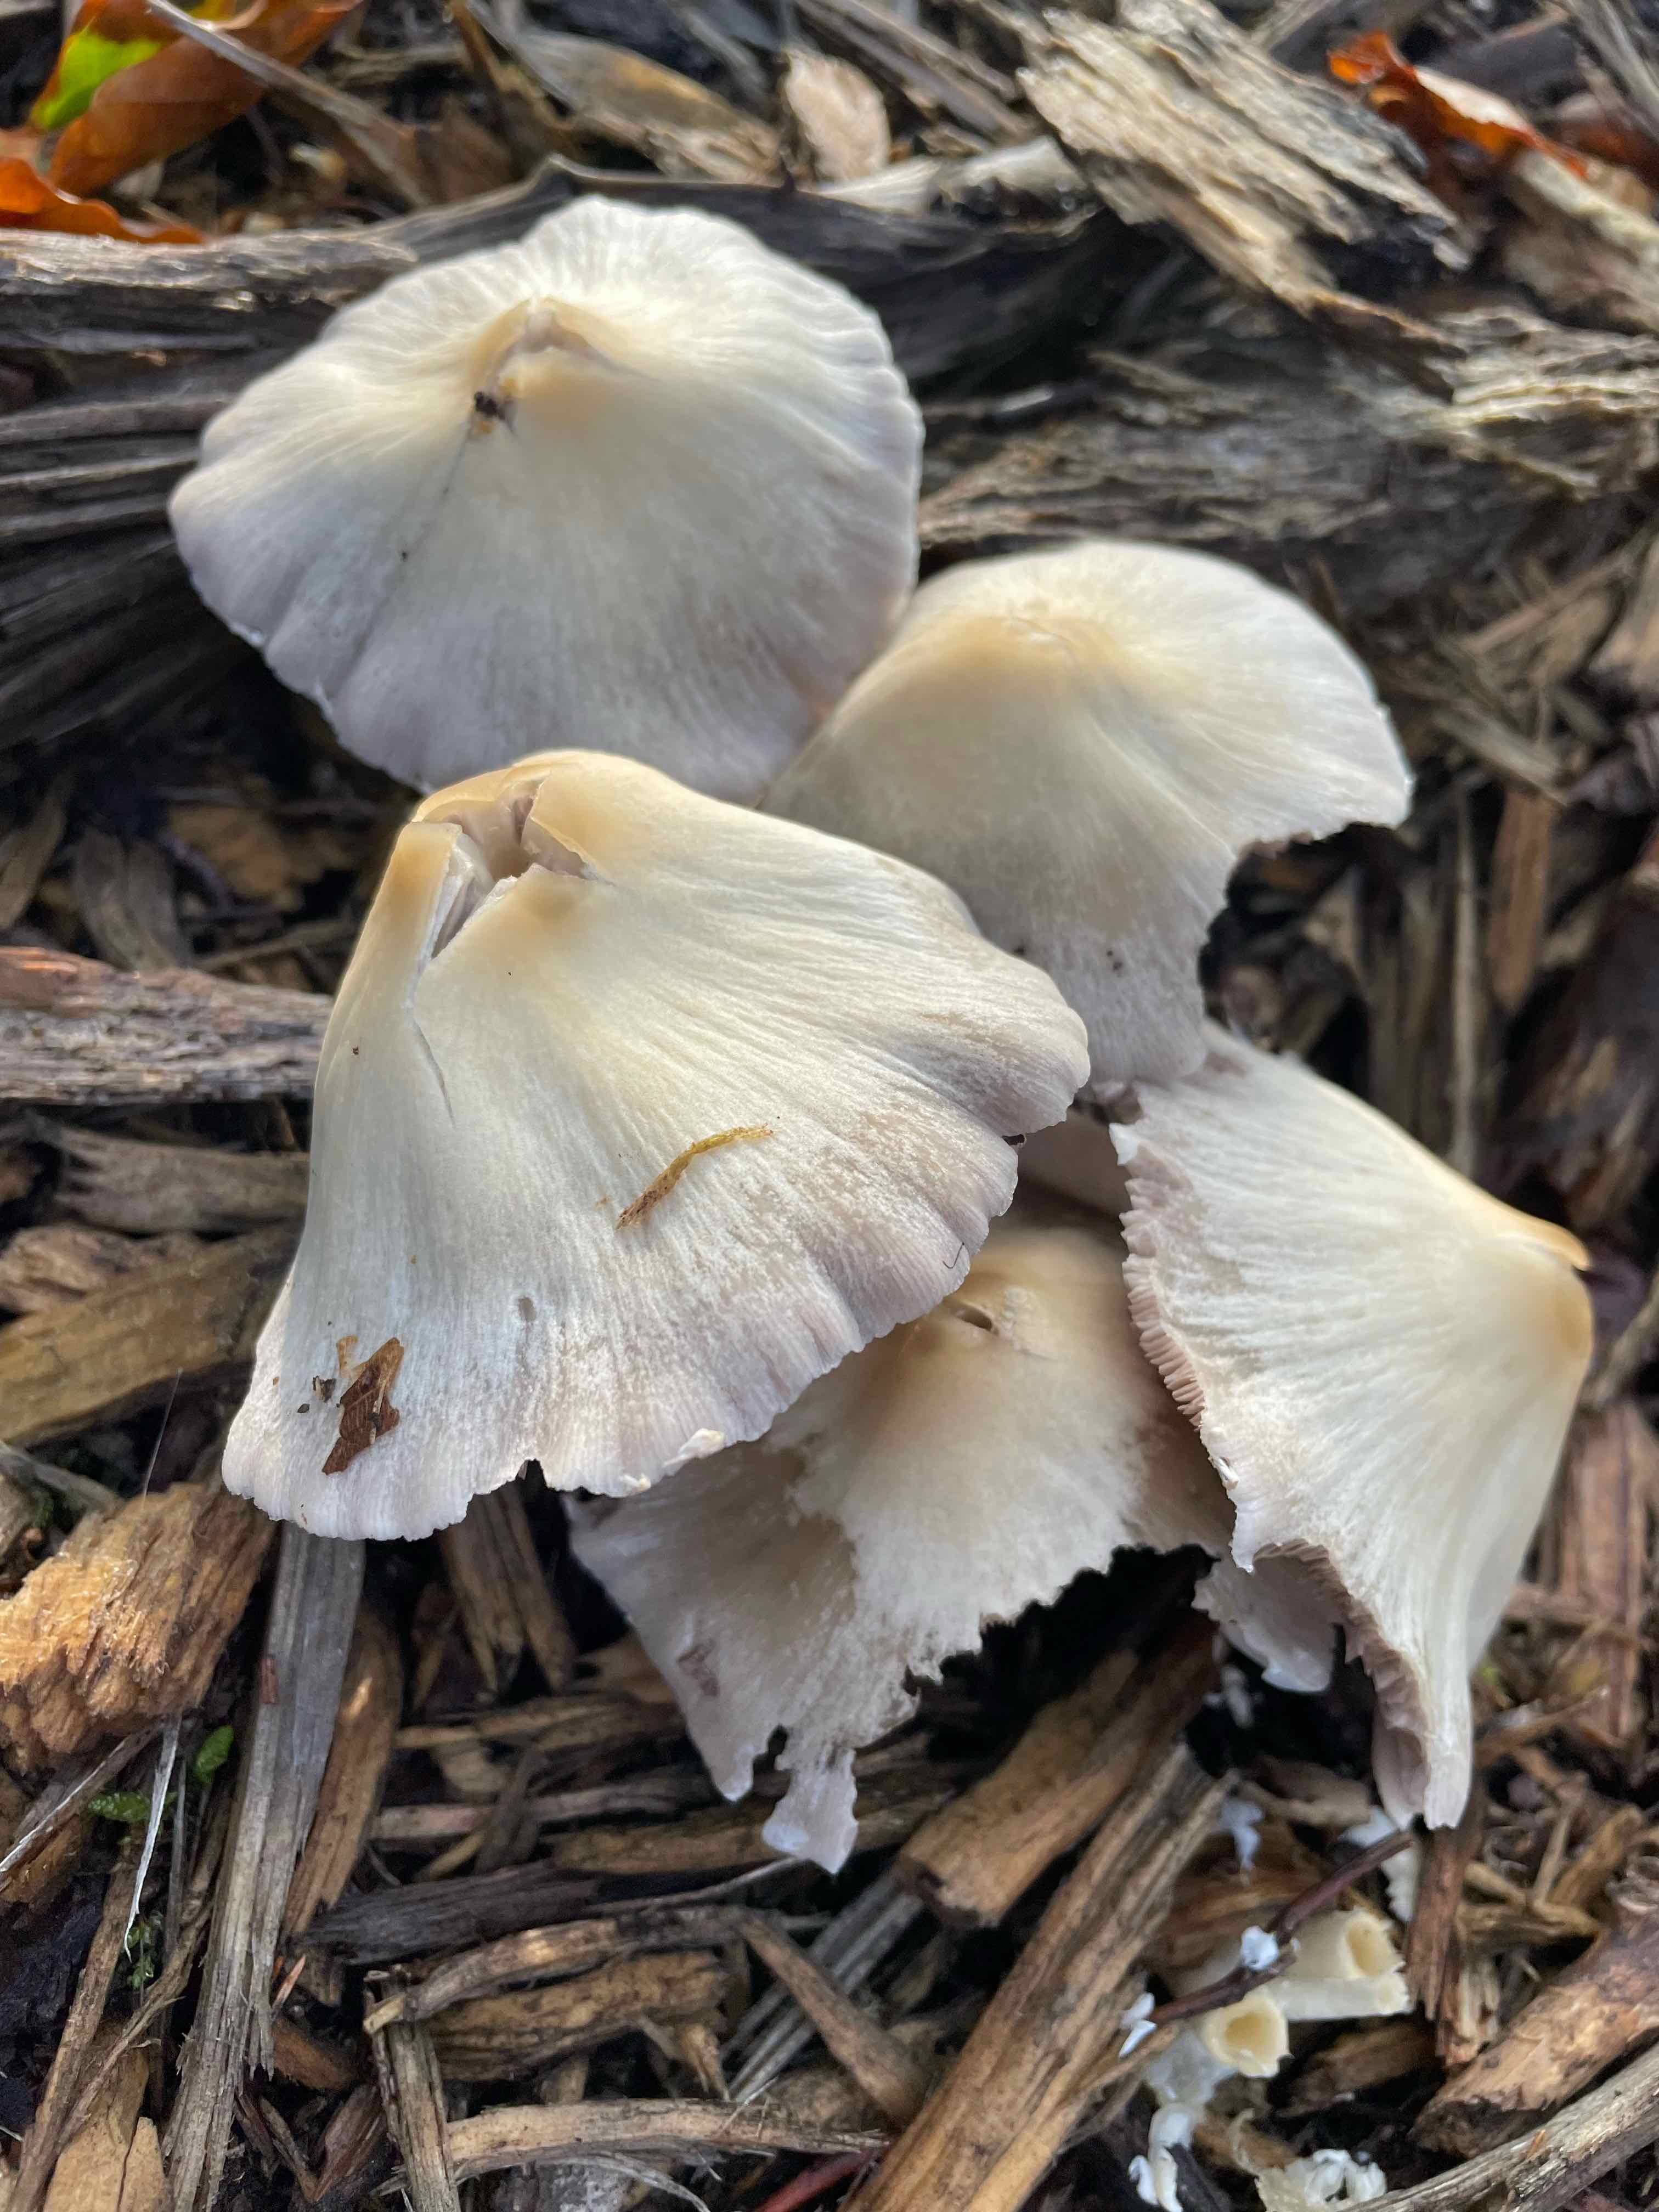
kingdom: Fungi
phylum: Basidiomycota
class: Agaricomycetes
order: Agaricales
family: Psathyrellaceae
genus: Candolleomyces
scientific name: Candolleomyces candolleanus
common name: Candolles mørkhat
